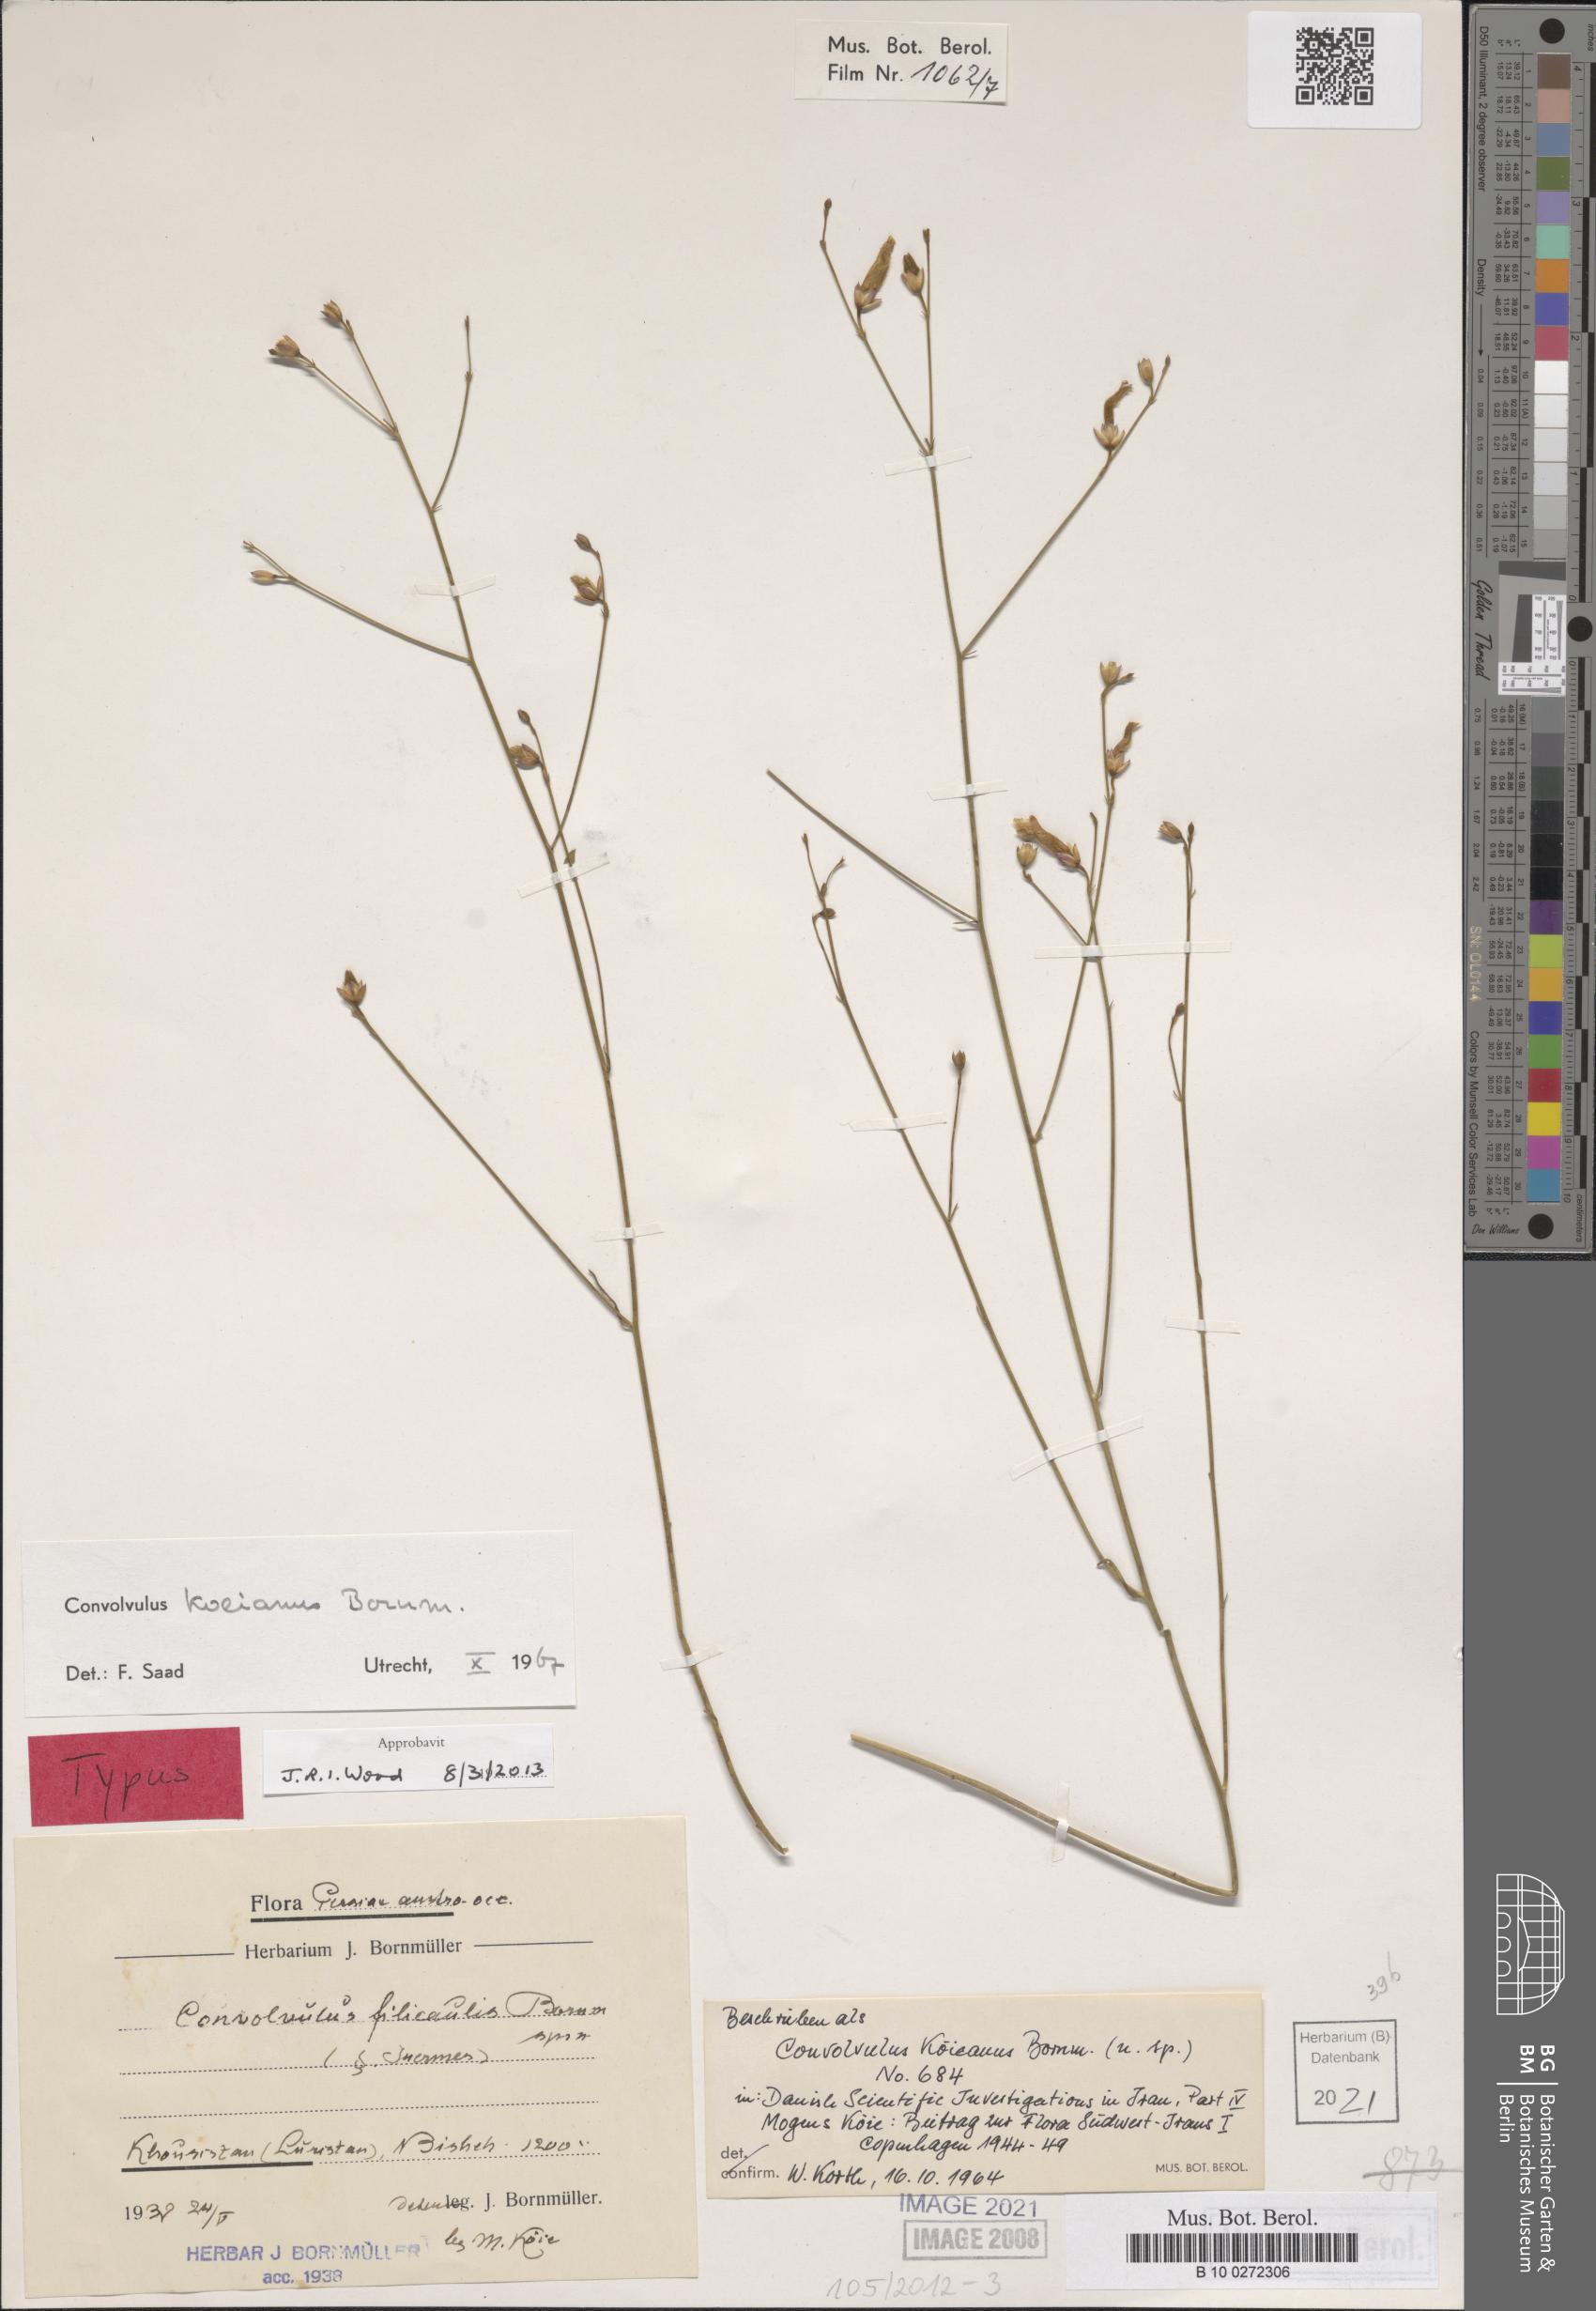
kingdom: Plantae
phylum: Tracheophyta
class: Magnoliopsida
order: Solanales
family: Convolvulaceae
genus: Convolvulus
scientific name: Convolvulus koieanus
